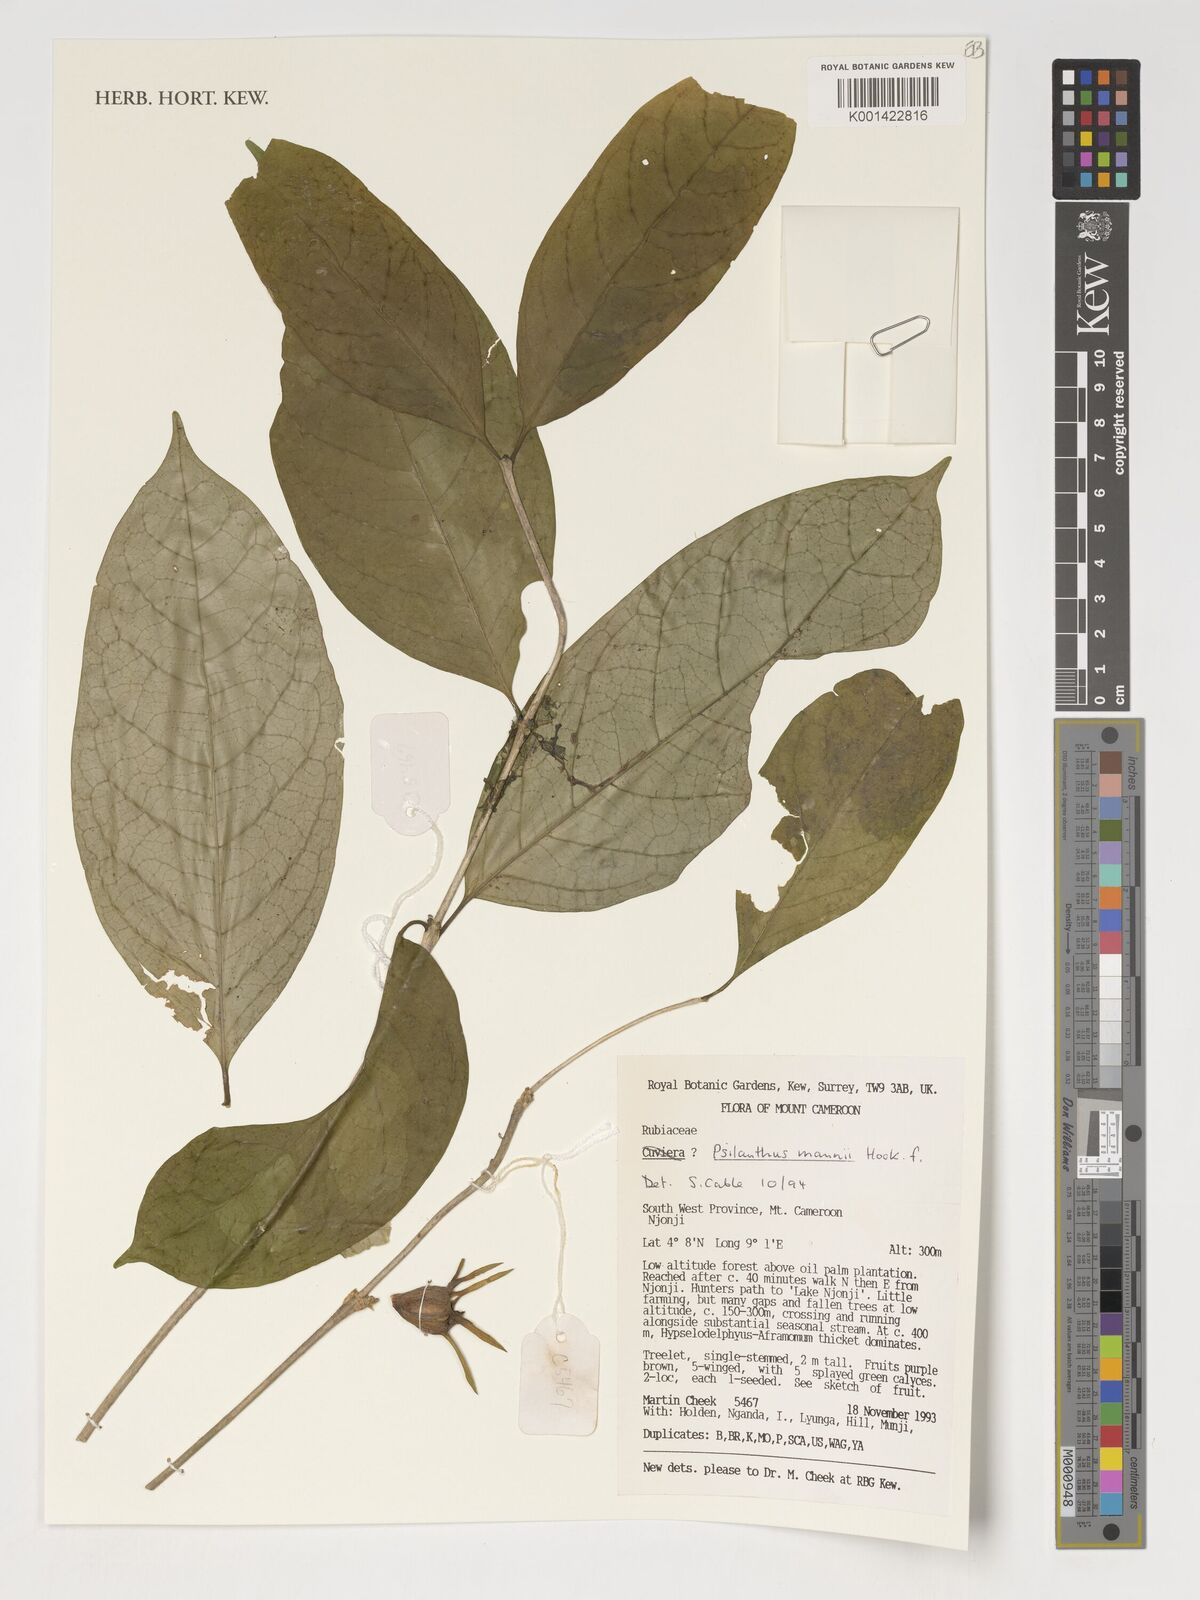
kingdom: Plantae
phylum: Tracheophyta
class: Magnoliopsida
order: Gentianales
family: Rubiaceae
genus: Coffea
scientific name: Coffea mannii
